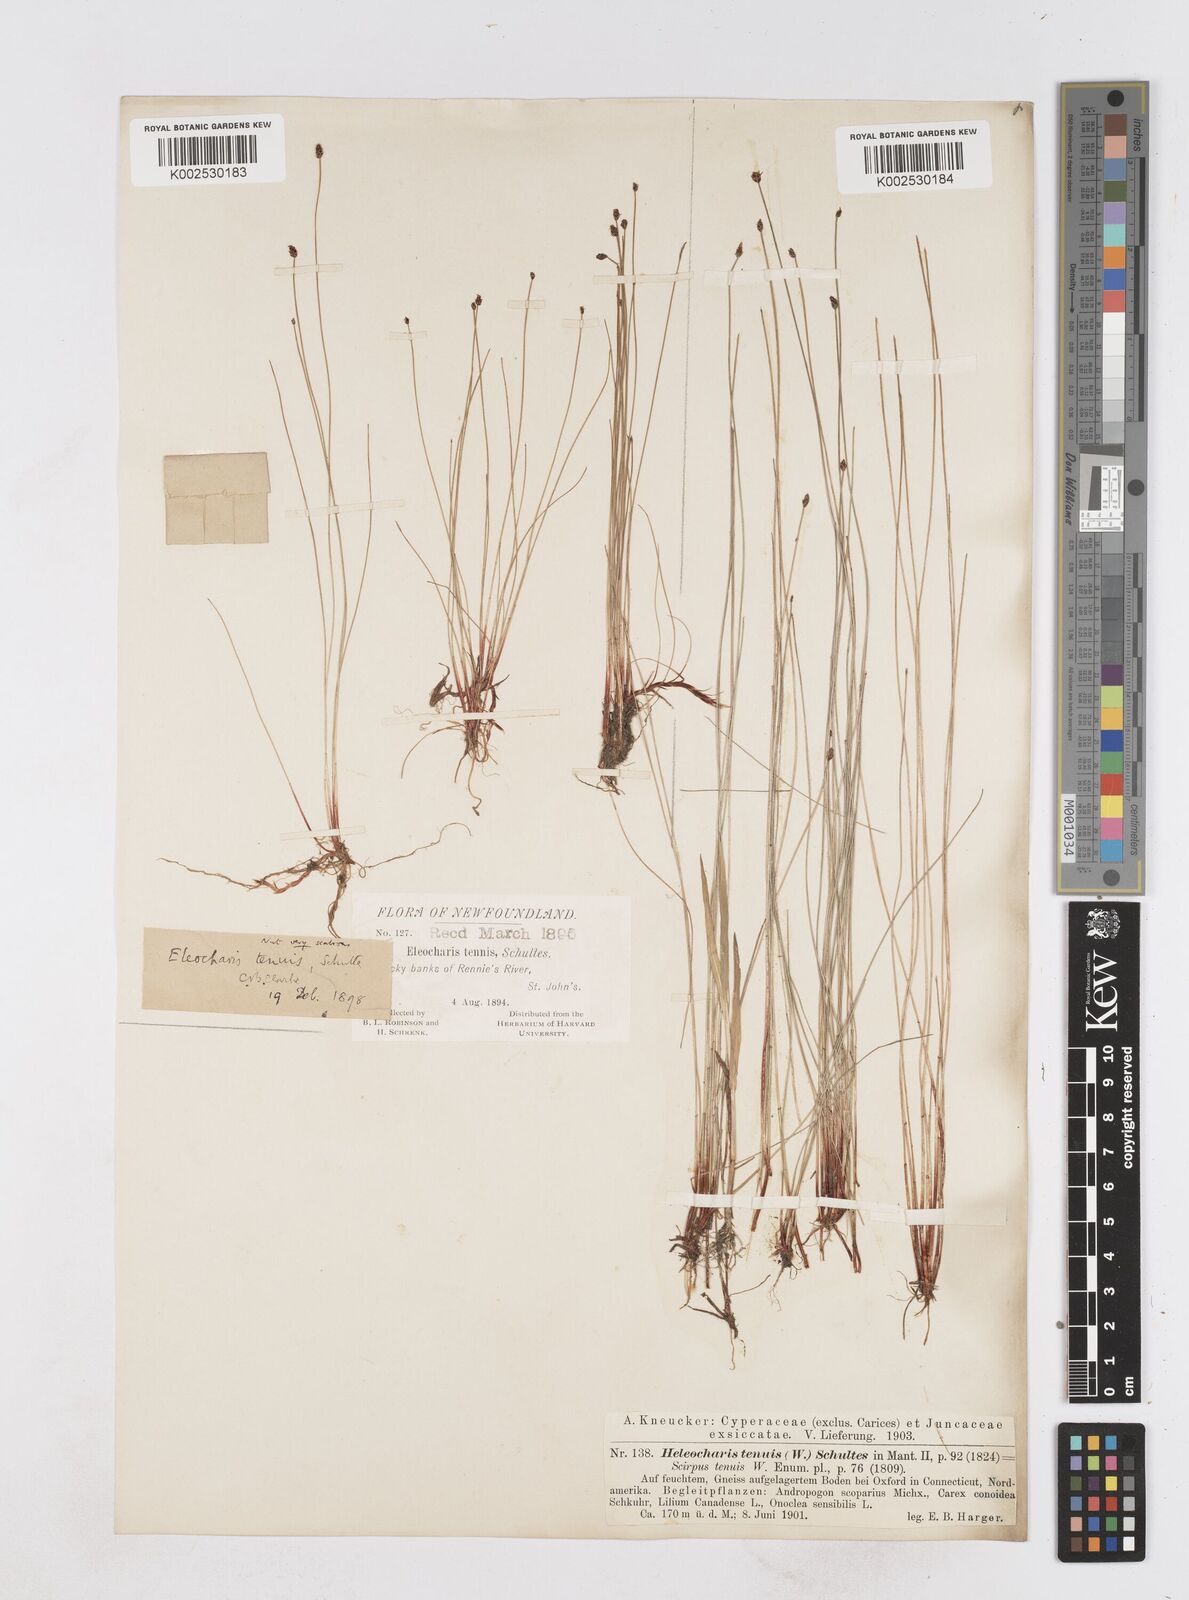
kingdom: Plantae
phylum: Tracheophyta
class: Liliopsida
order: Poales
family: Cyperaceae
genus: Eleocharis
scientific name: Eleocharis tenuis
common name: Dog's hair
